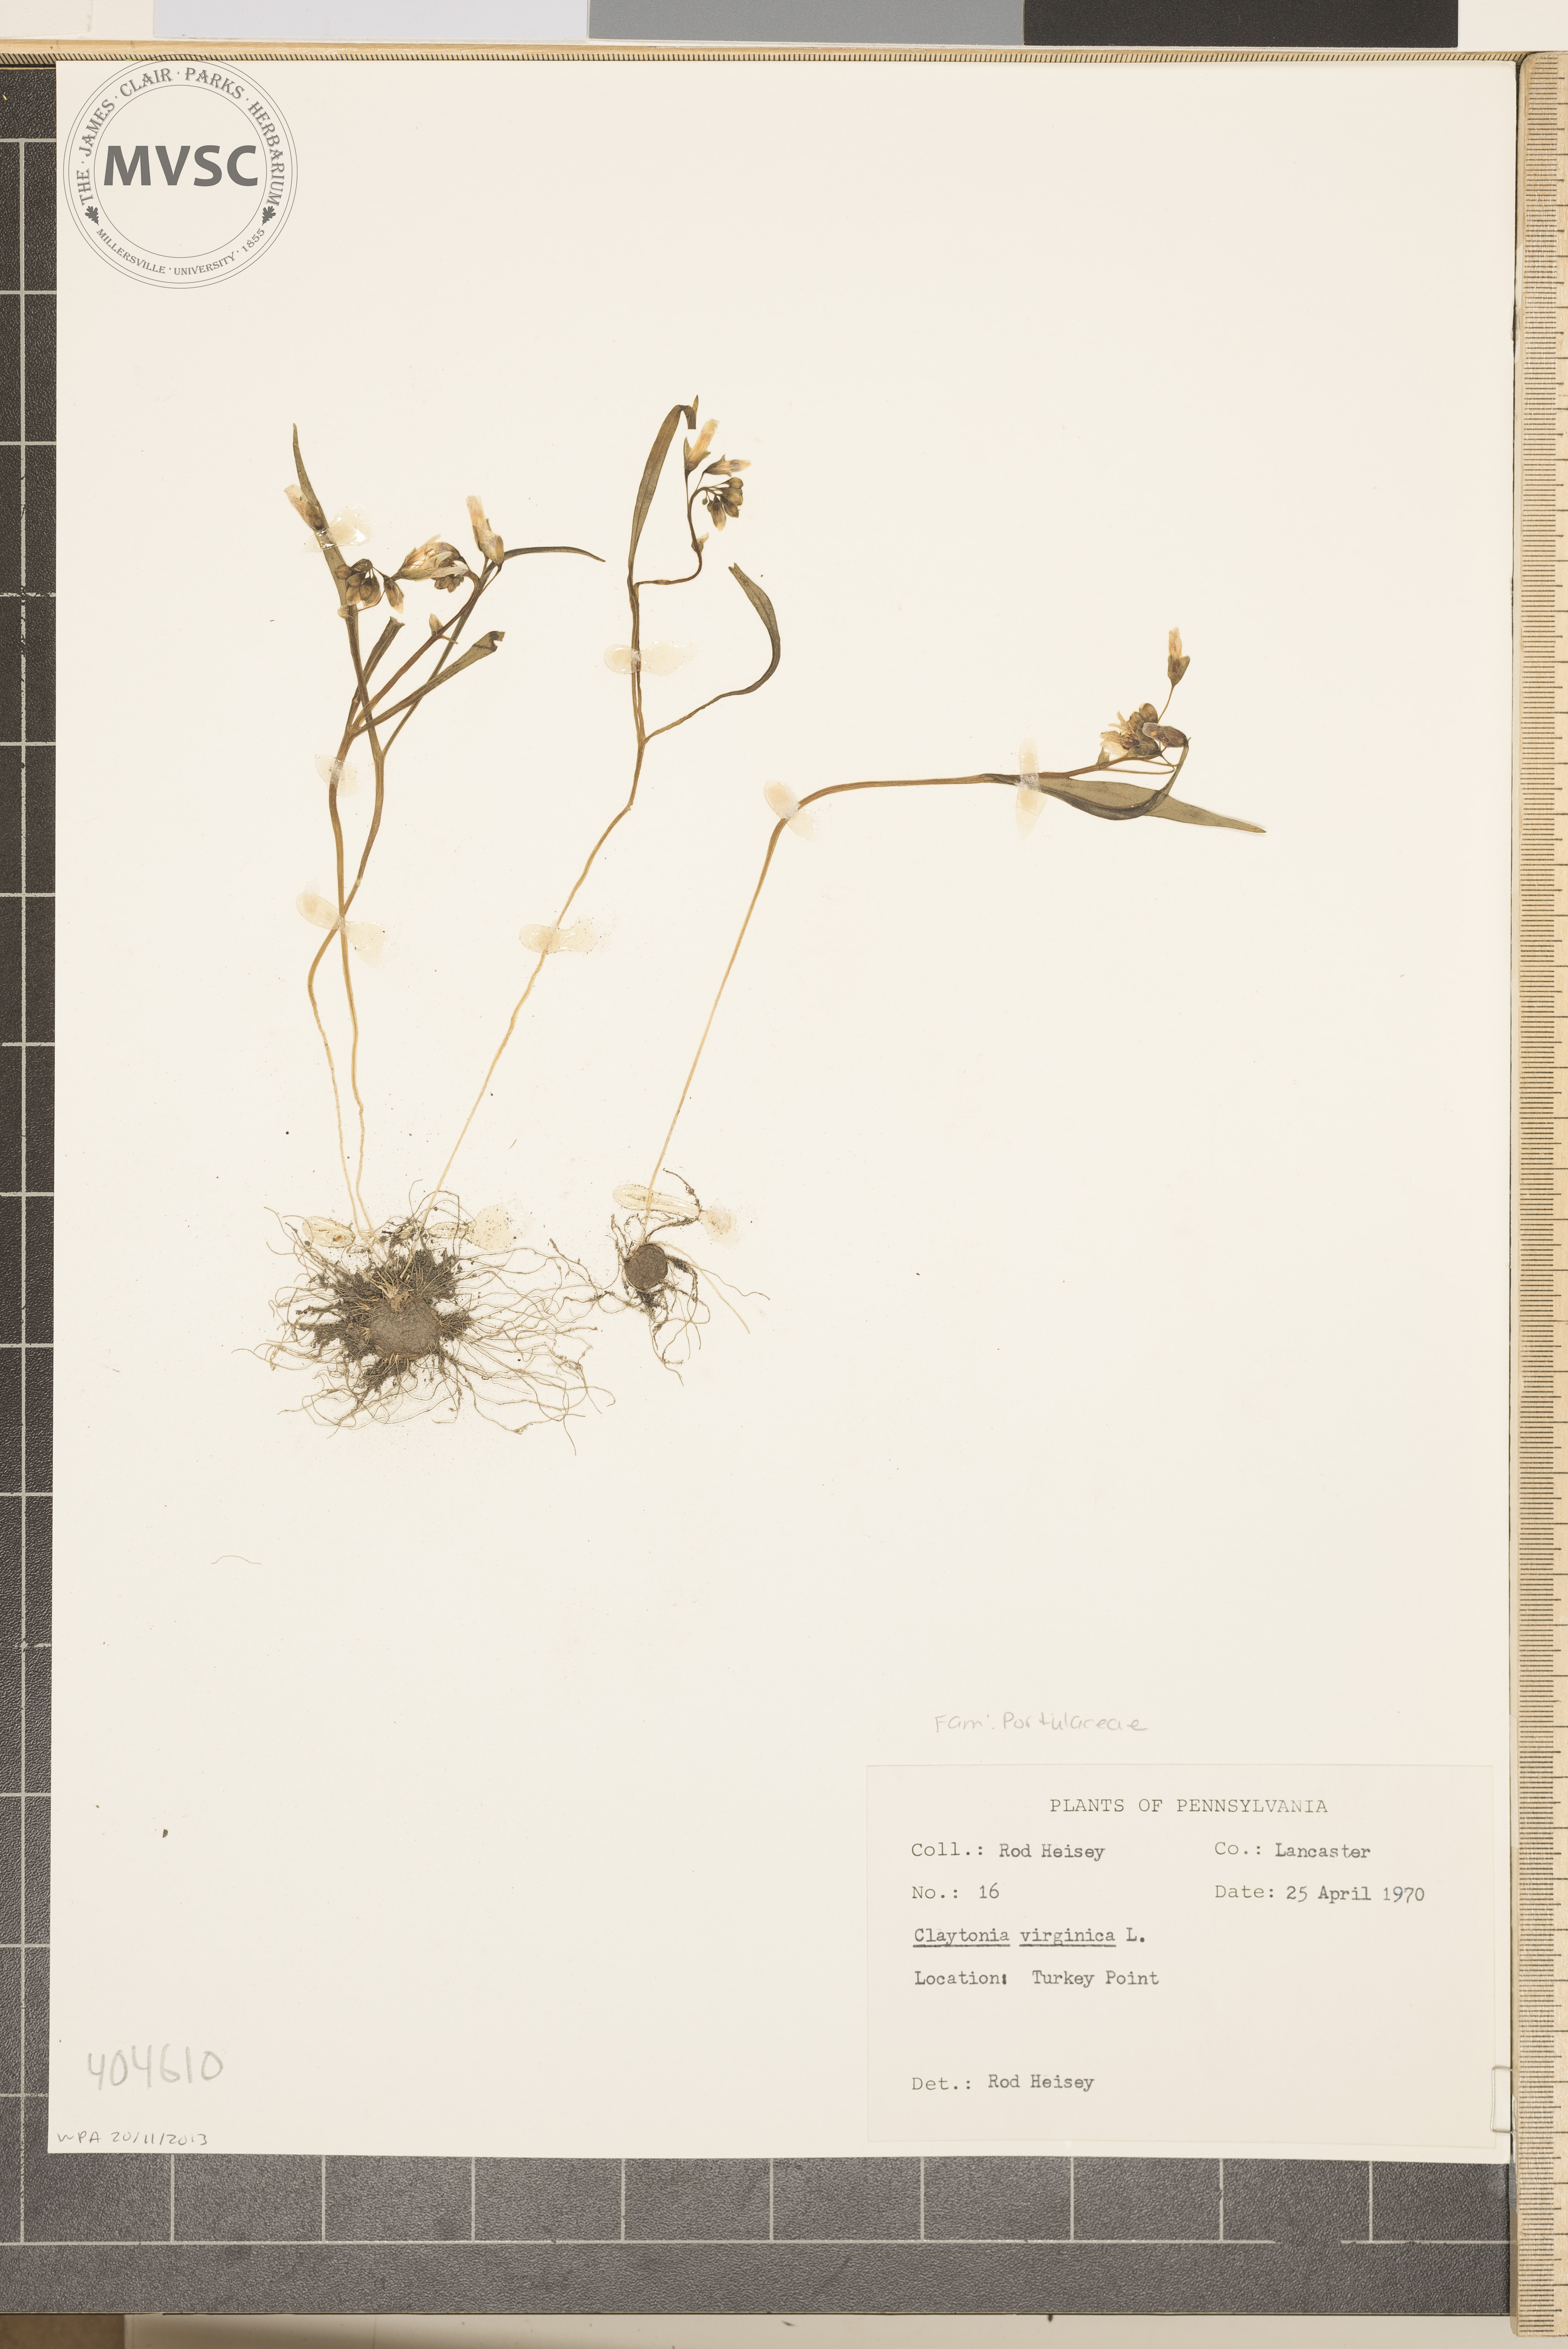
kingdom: Plantae
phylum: Tracheophyta
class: Magnoliopsida
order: Caryophyllales
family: Montiaceae
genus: Claytonia
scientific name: Claytonia virginica
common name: Virginia springbeauty
